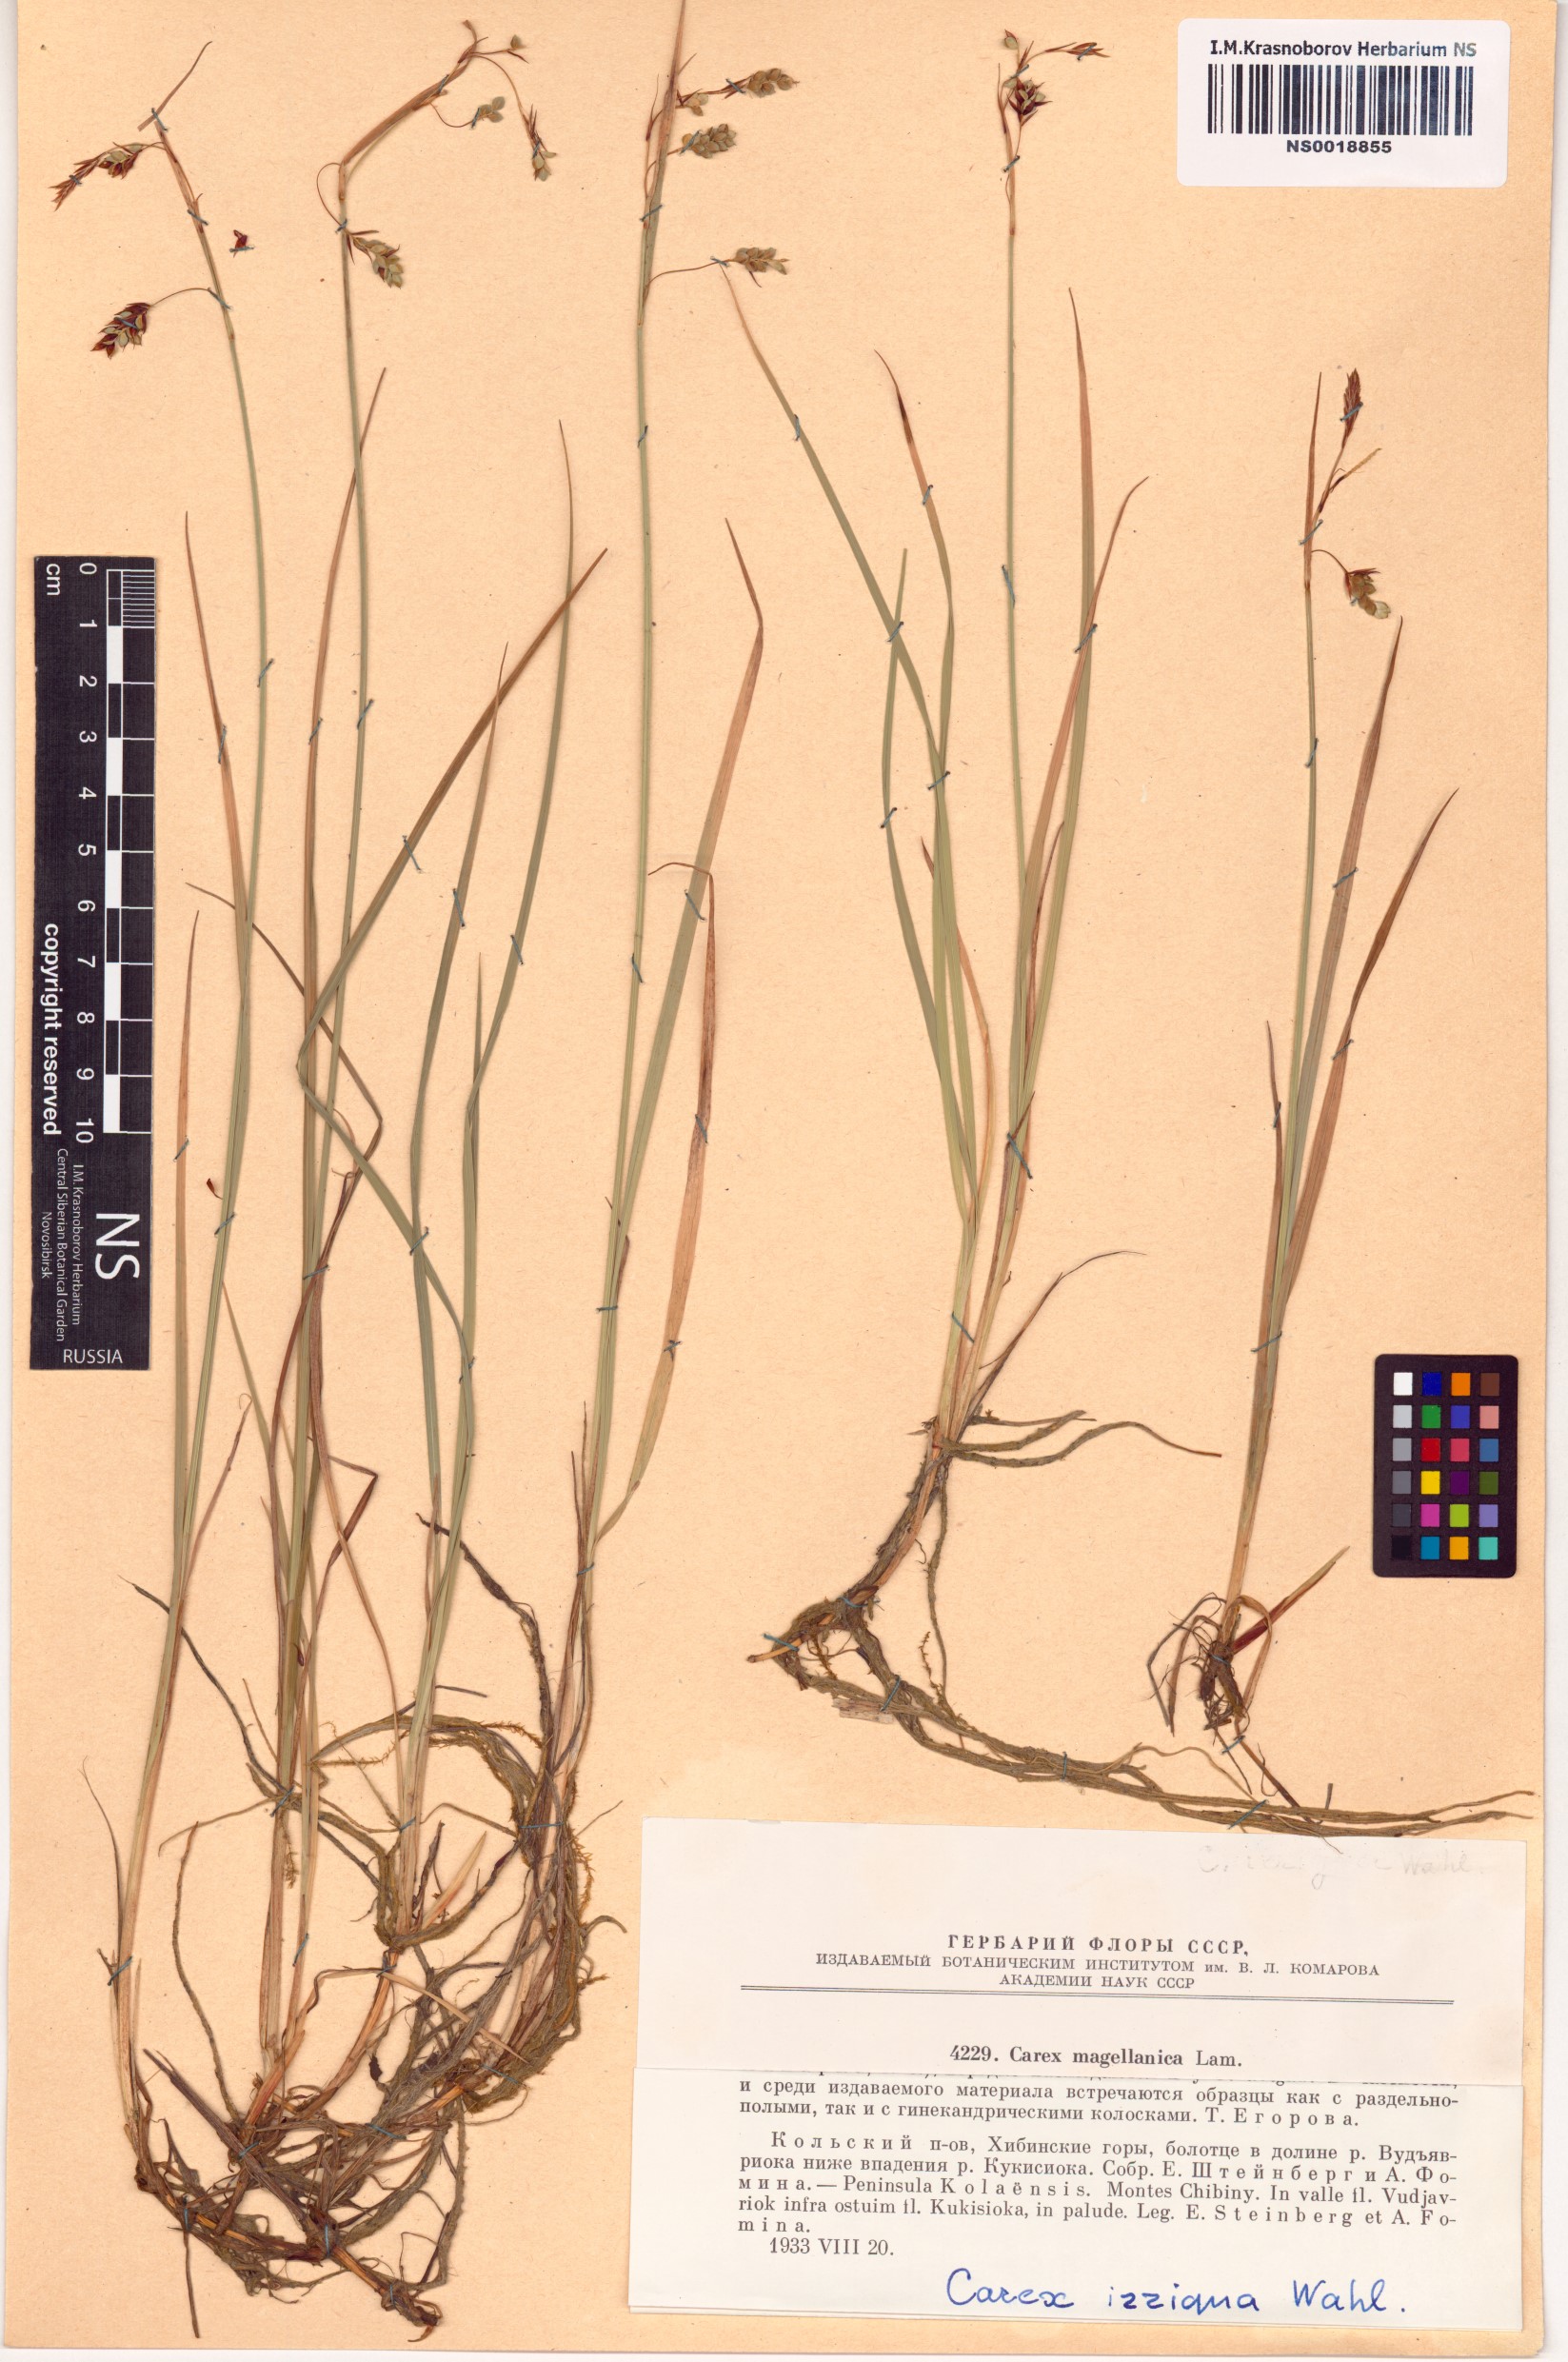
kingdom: Plantae
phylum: Tracheophyta
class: Liliopsida
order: Poales
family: Cyperaceae
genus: Carex
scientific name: Carex magellanica
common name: Bog sedge
